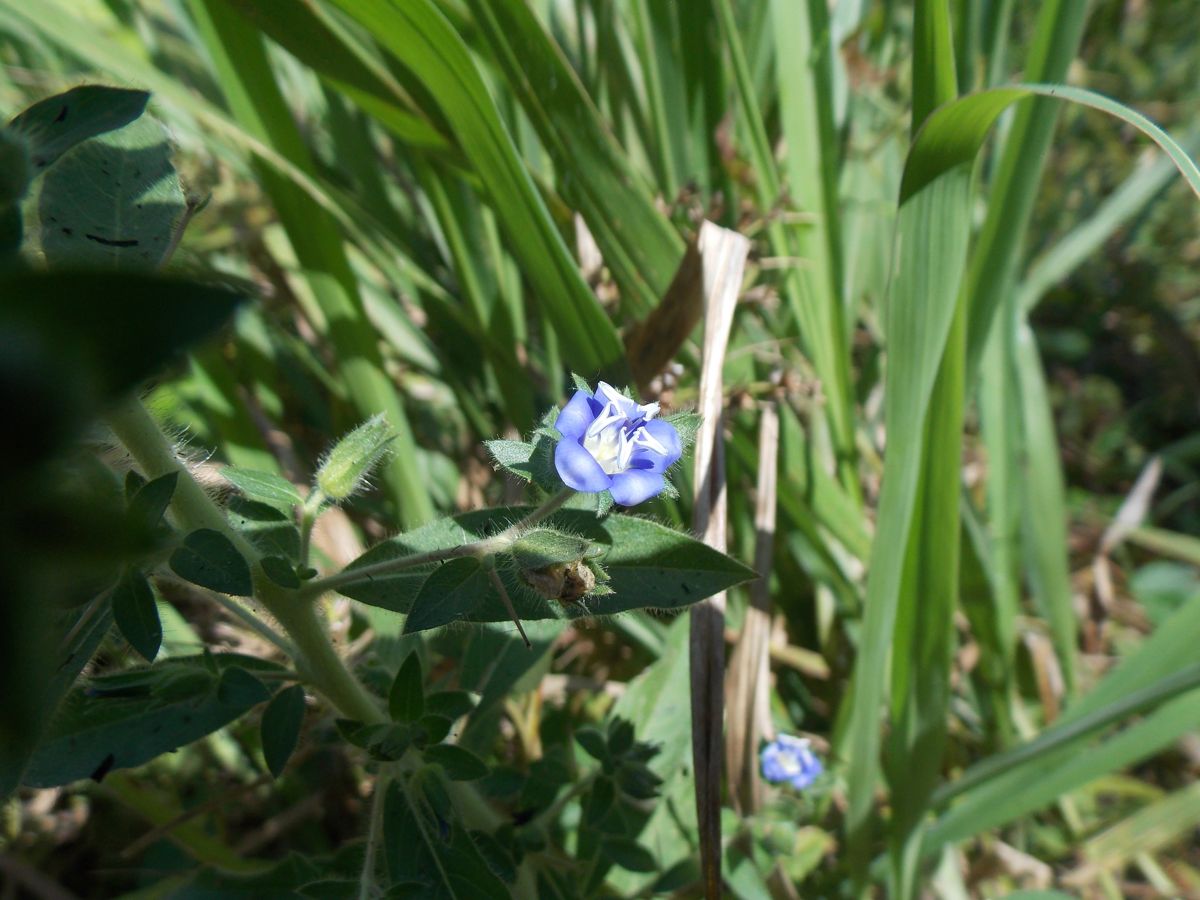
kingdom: Plantae
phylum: Tracheophyta
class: Magnoliopsida
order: Solanales
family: Hydroleaceae
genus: Hydrolea
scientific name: Hydrolea spinosa
